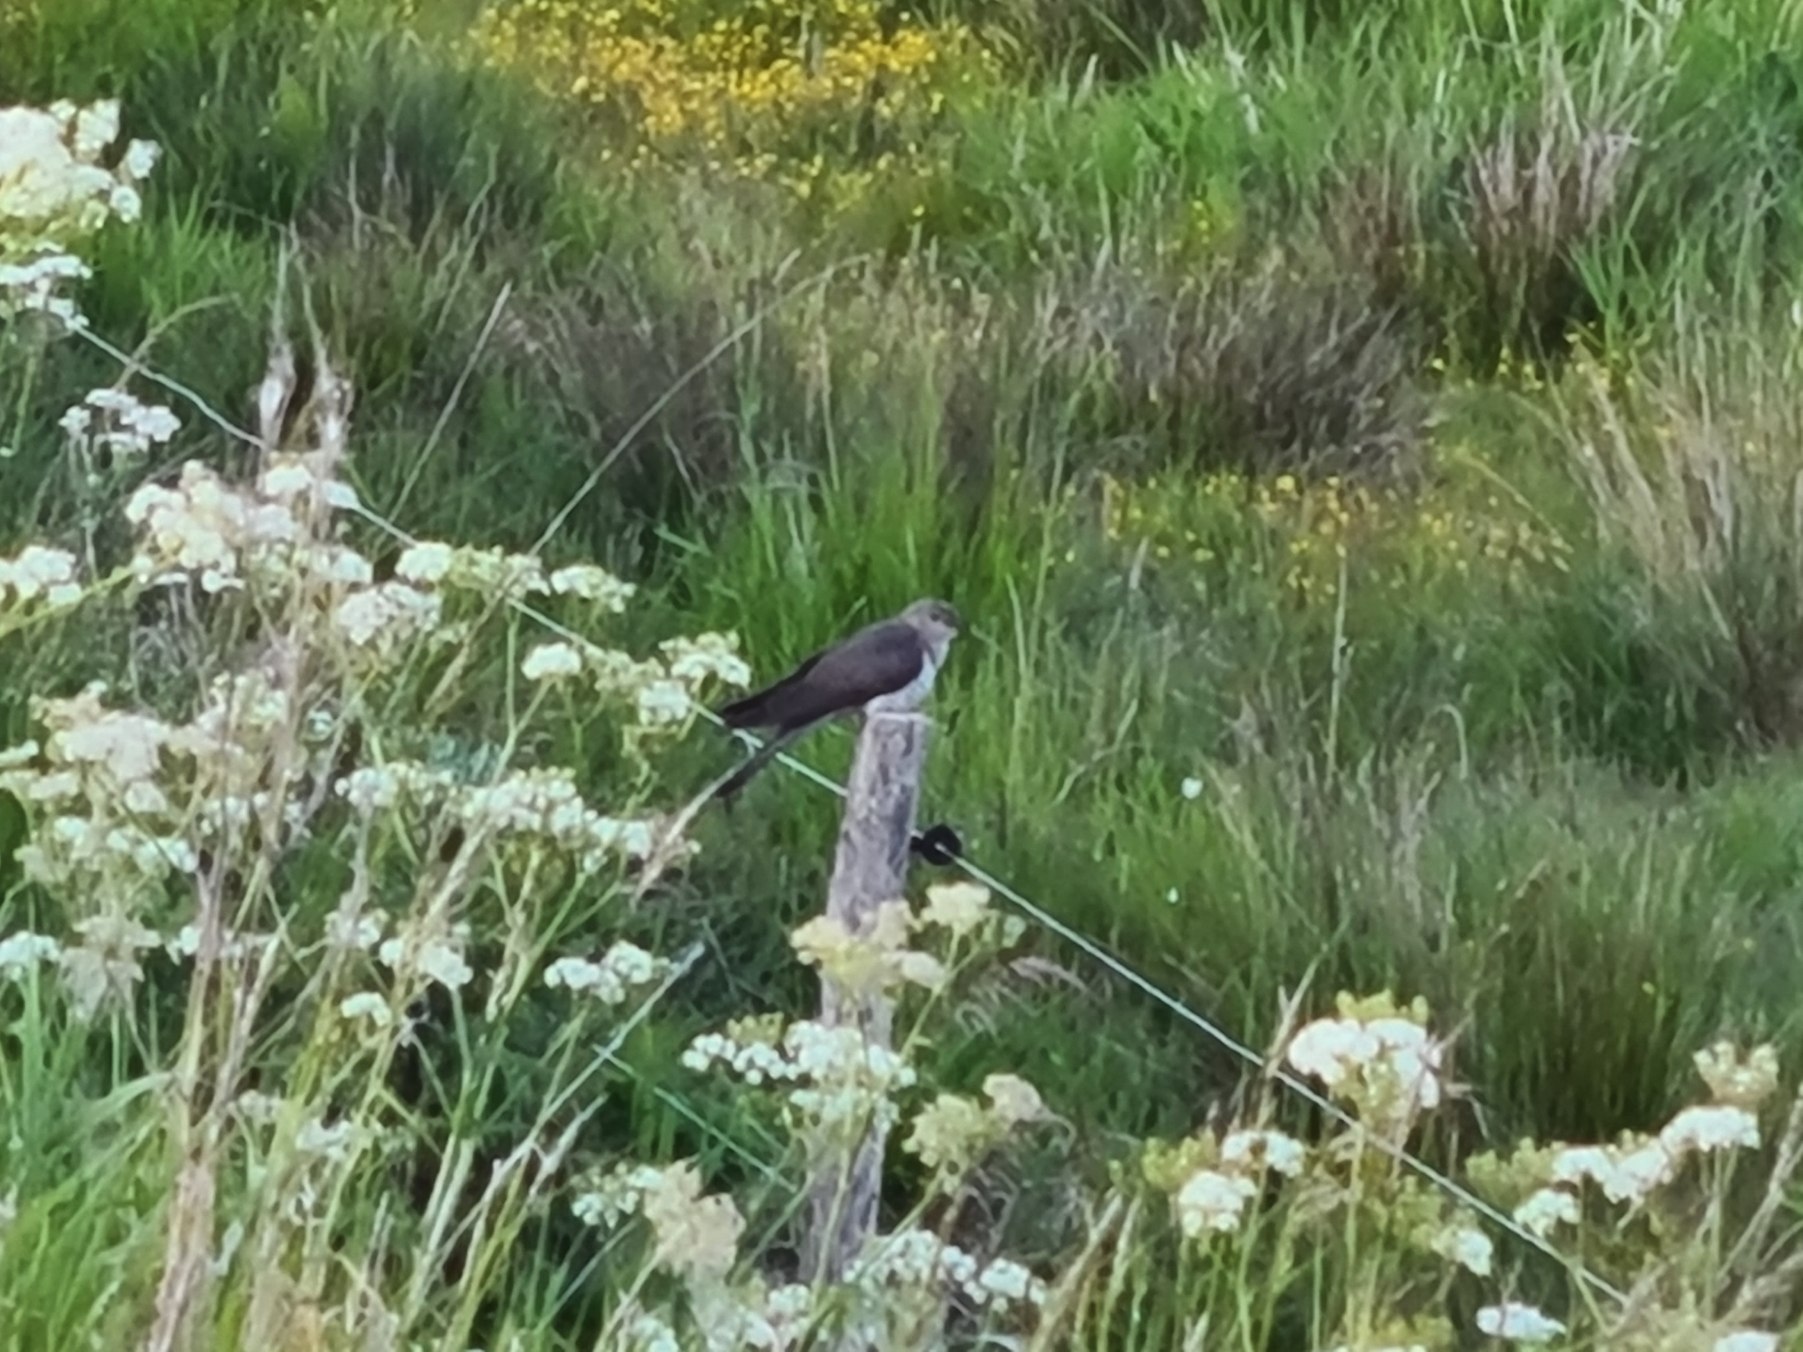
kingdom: Animalia
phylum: Chordata
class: Aves
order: Cuculiformes
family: Cuculidae
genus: Cuculus
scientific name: Cuculus canorus
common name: Gøg
